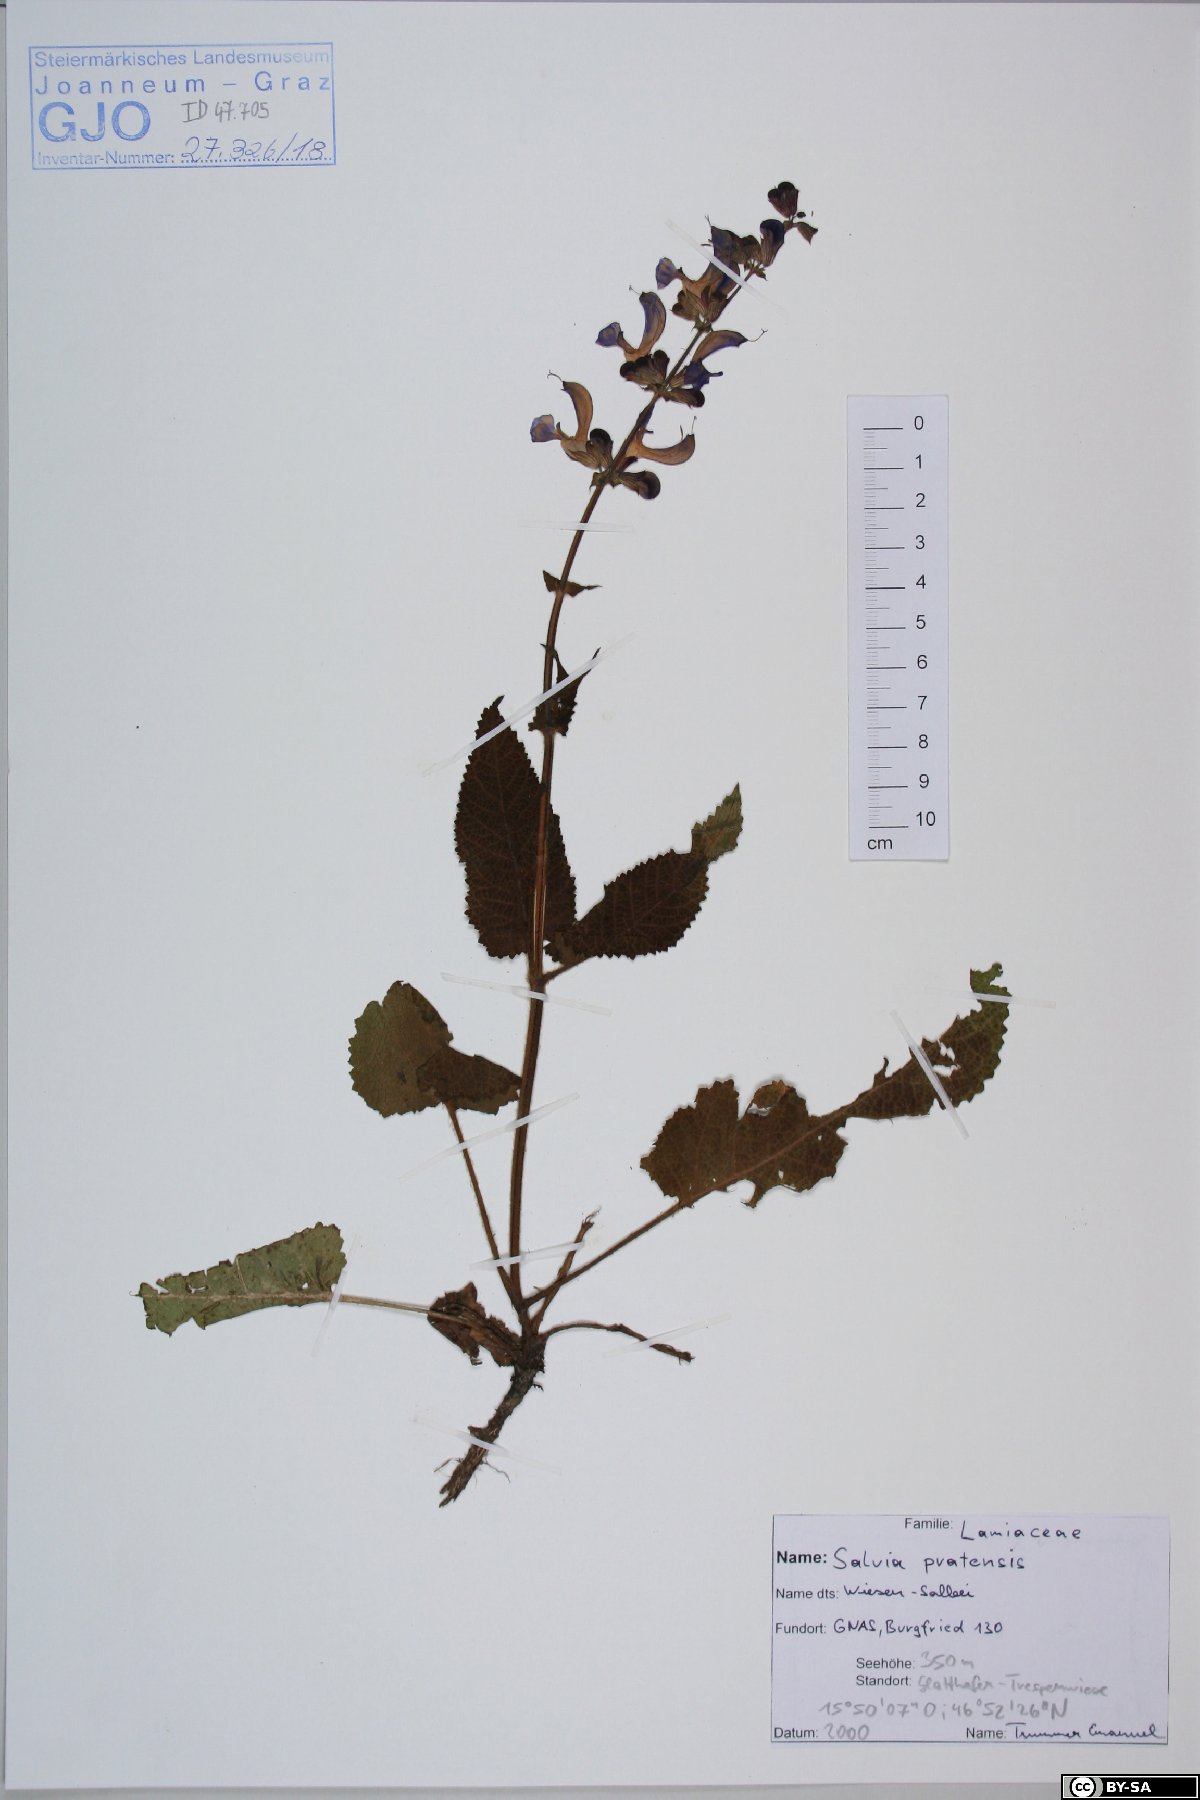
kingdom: Plantae
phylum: Tracheophyta
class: Magnoliopsida
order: Lamiales
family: Lamiaceae
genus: Salvia
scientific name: Salvia pratensis
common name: Meadow sage
